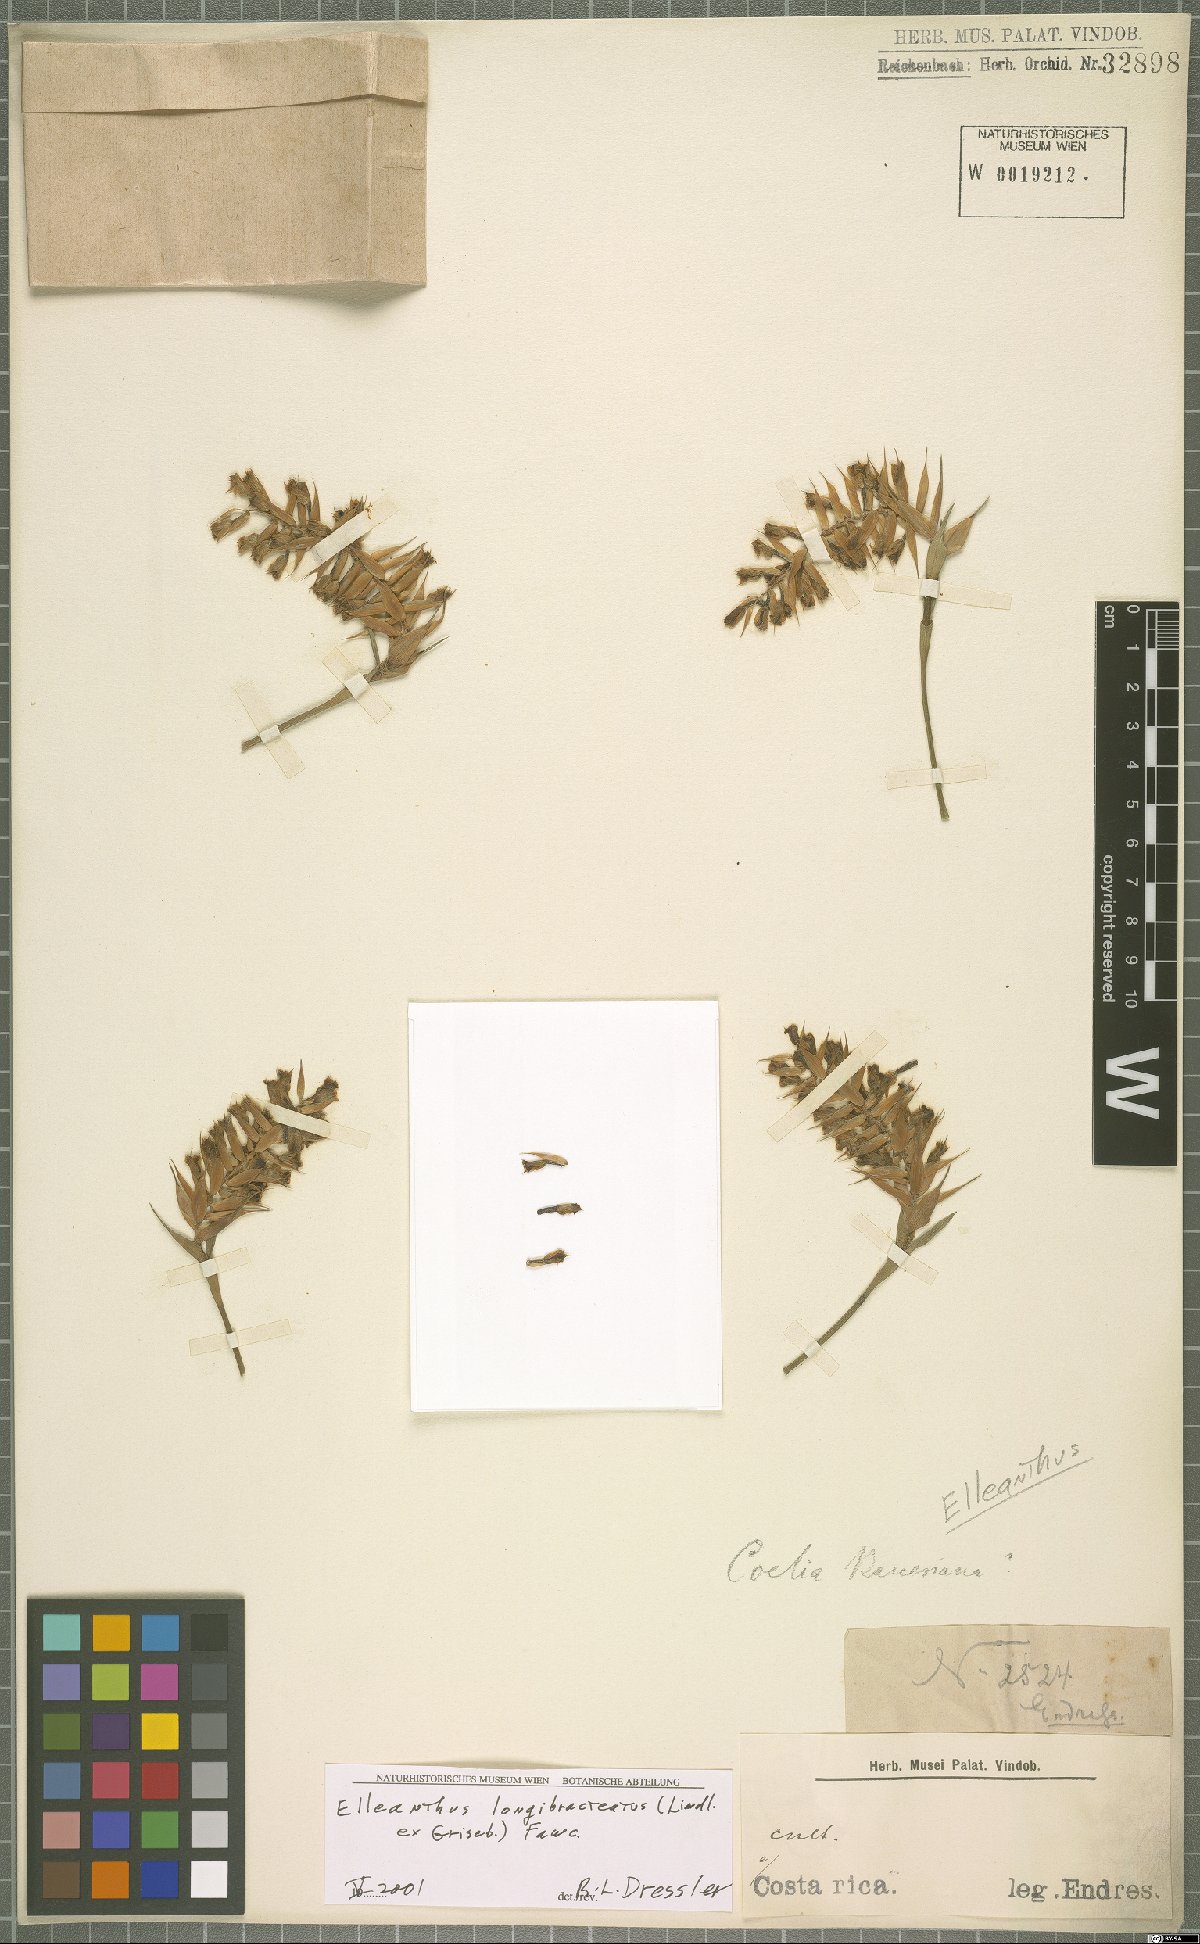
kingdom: Plantae
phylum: Tracheophyta
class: Liliopsida
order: Asparagales
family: Orchidaceae
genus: Elleanthus
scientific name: Elleanthus longibracteatus
